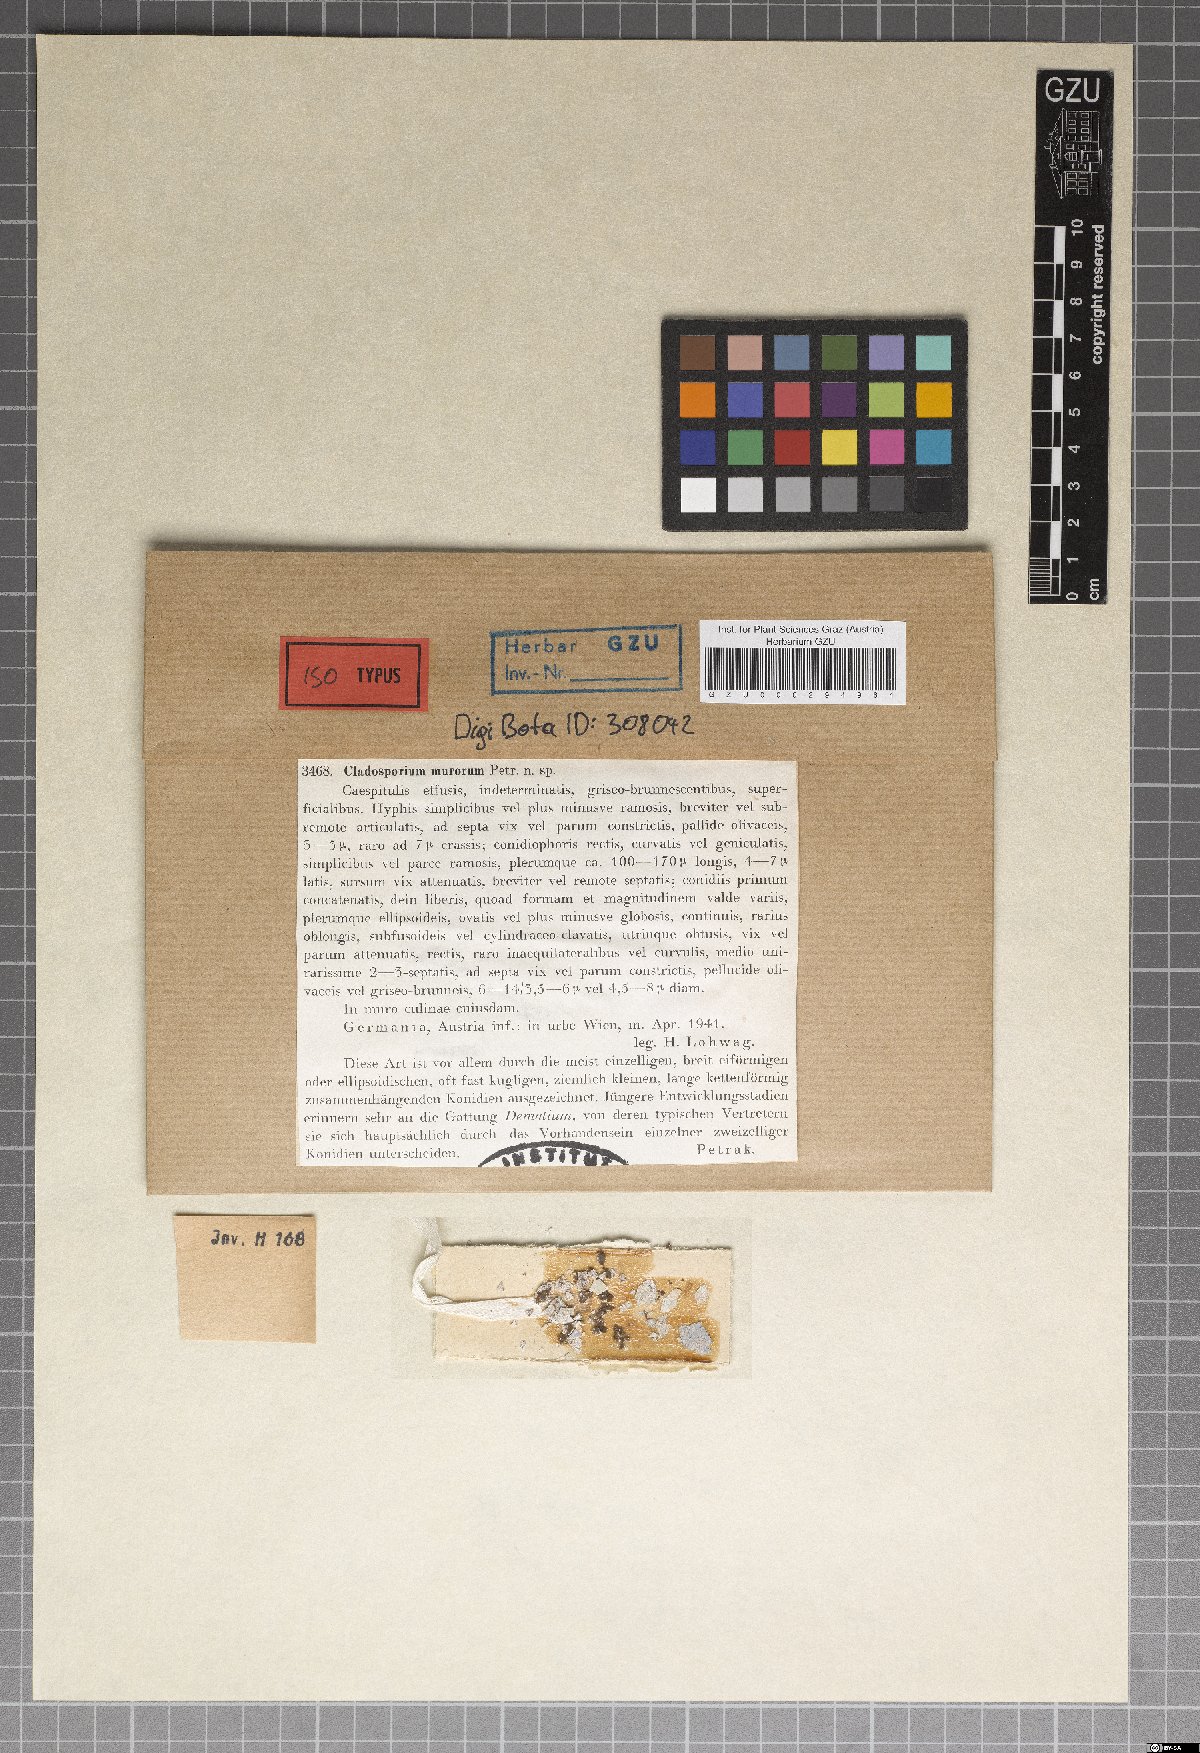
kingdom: Fungi
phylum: Ascomycota
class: Dothideomycetes
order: Capnodiales
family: Cladosporiaceae
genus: Cladosporium
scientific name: Cladosporium murorum
